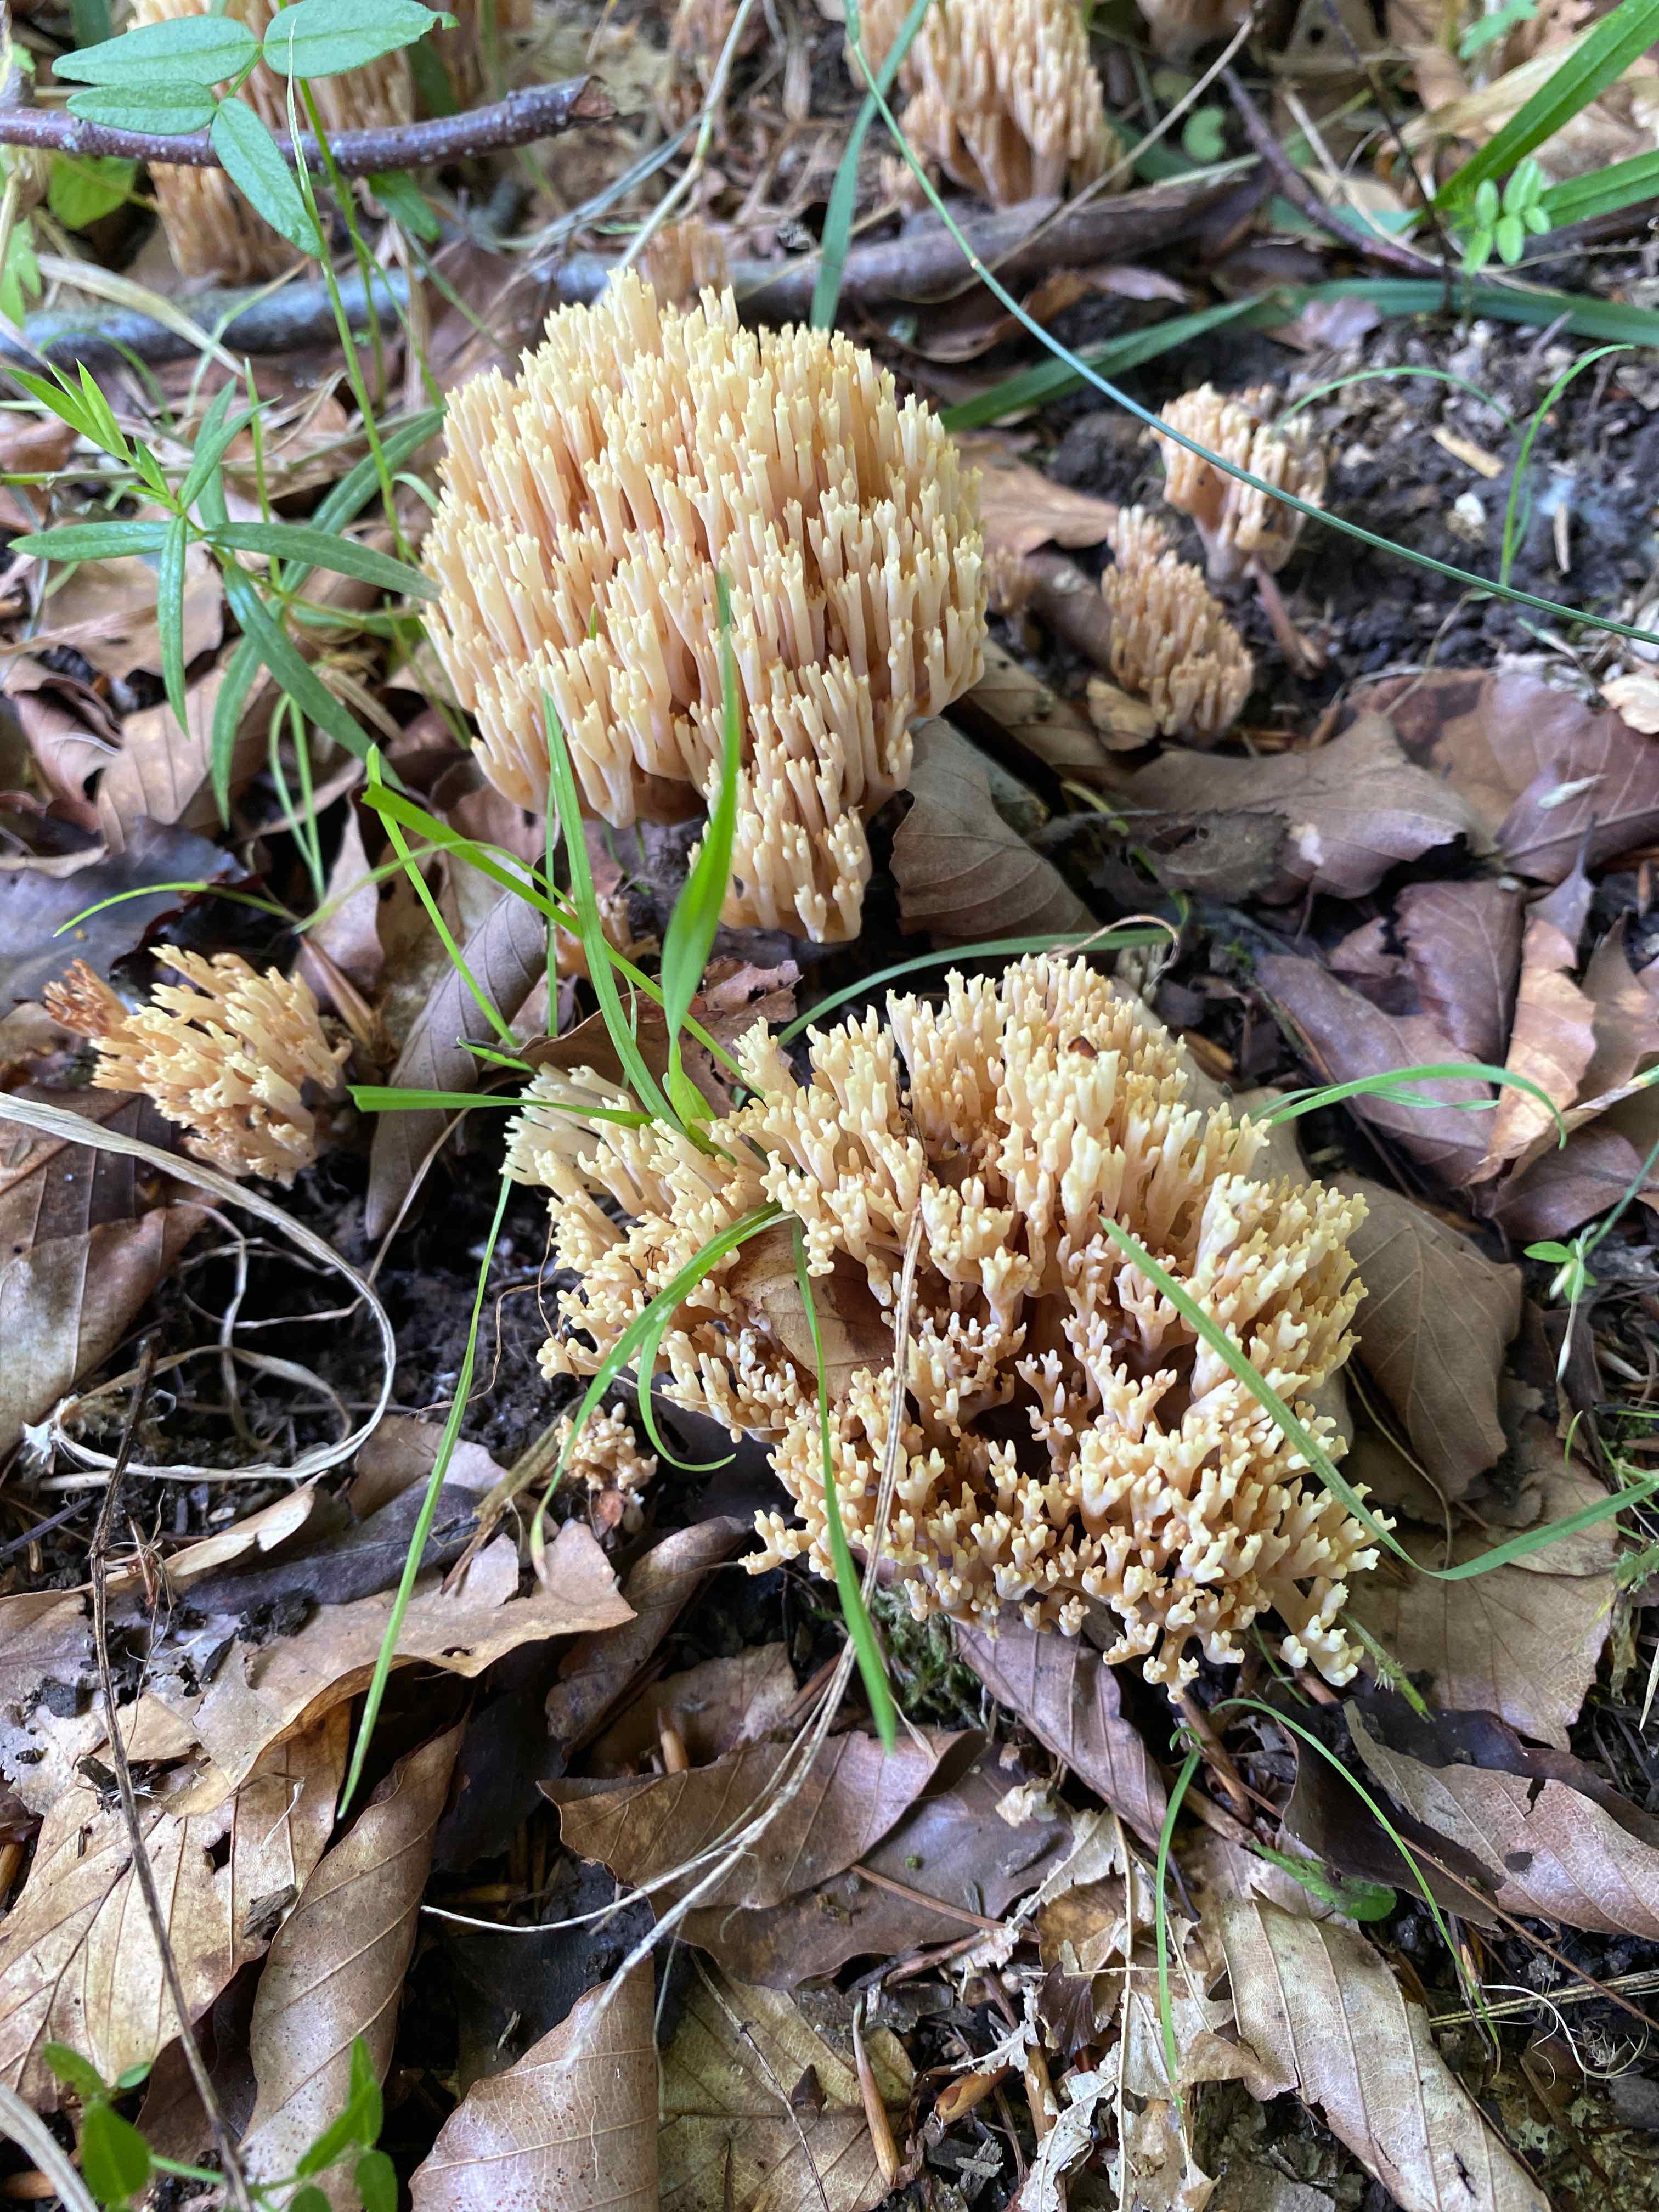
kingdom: Fungi
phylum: Basidiomycota
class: Agaricomycetes
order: Gomphales
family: Gomphaceae
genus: Ramaria
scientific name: Ramaria stricta
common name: rank koralsvamp
